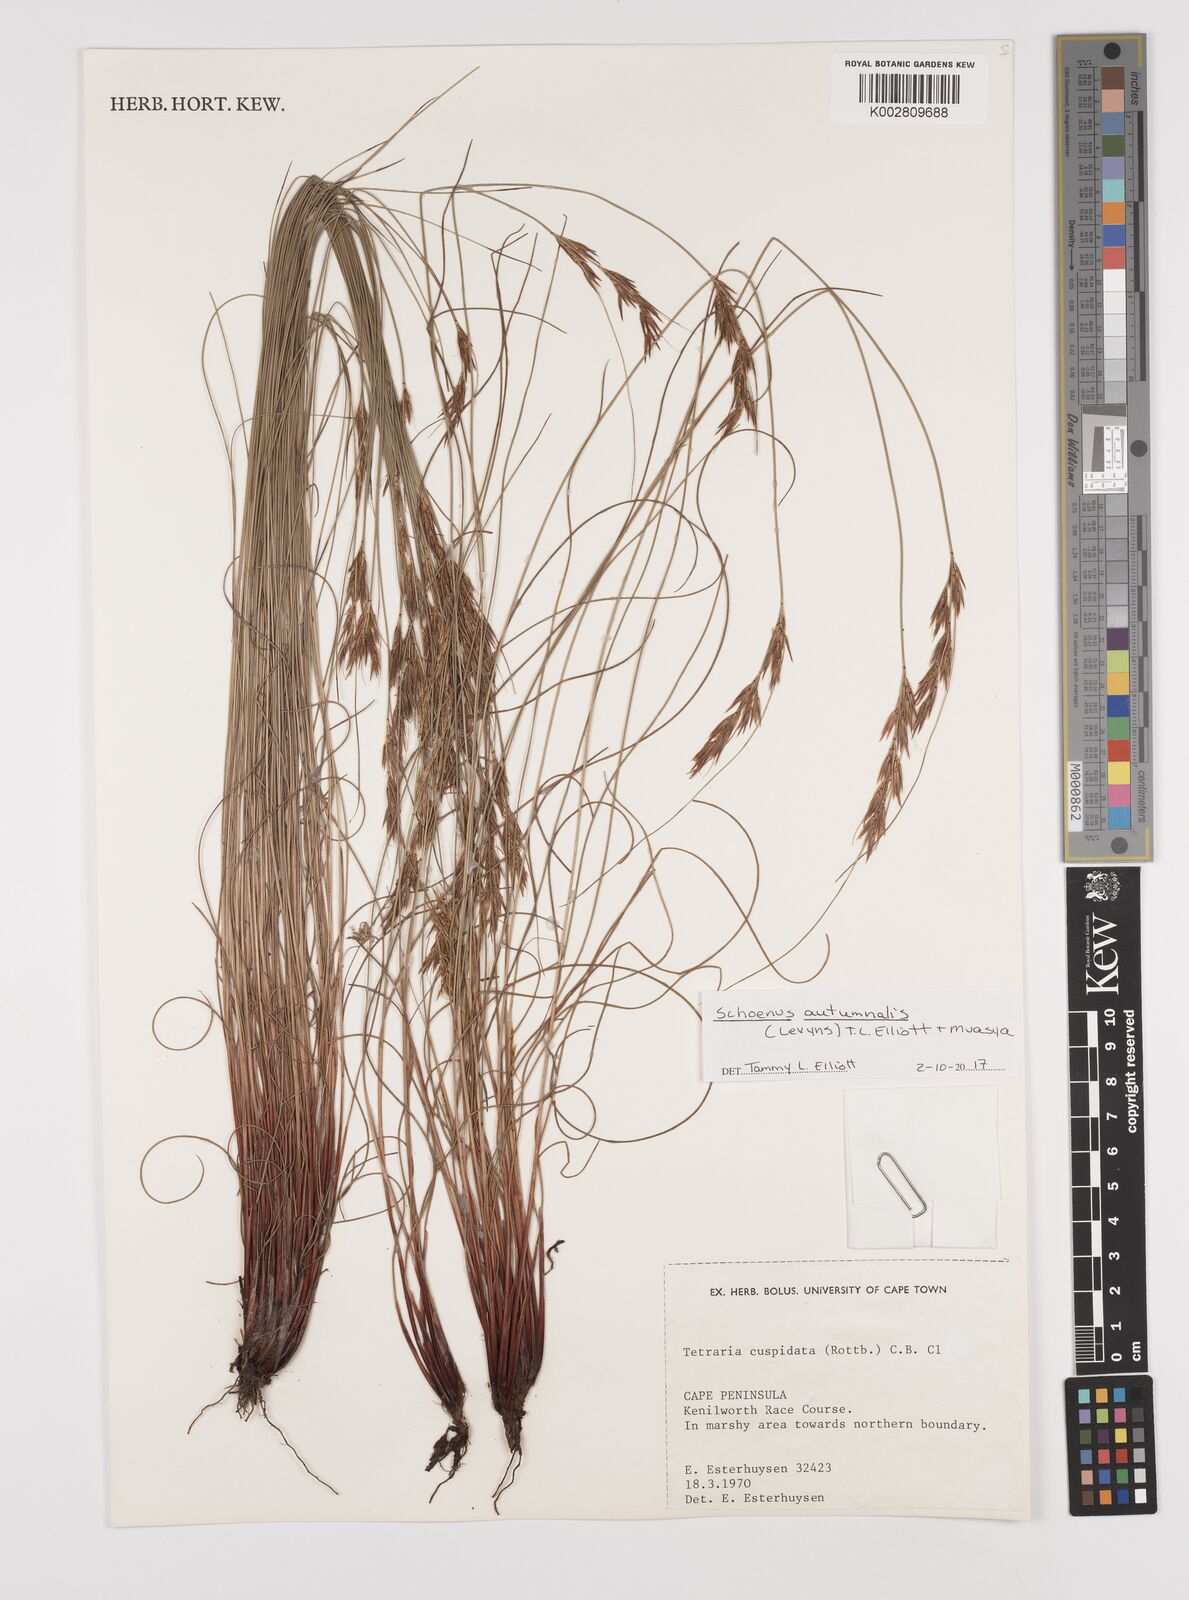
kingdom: Plantae
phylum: Tracheophyta
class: Liliopsida
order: Poales
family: Cyperaceae
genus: Schoenus
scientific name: Schoenus ligulatus
